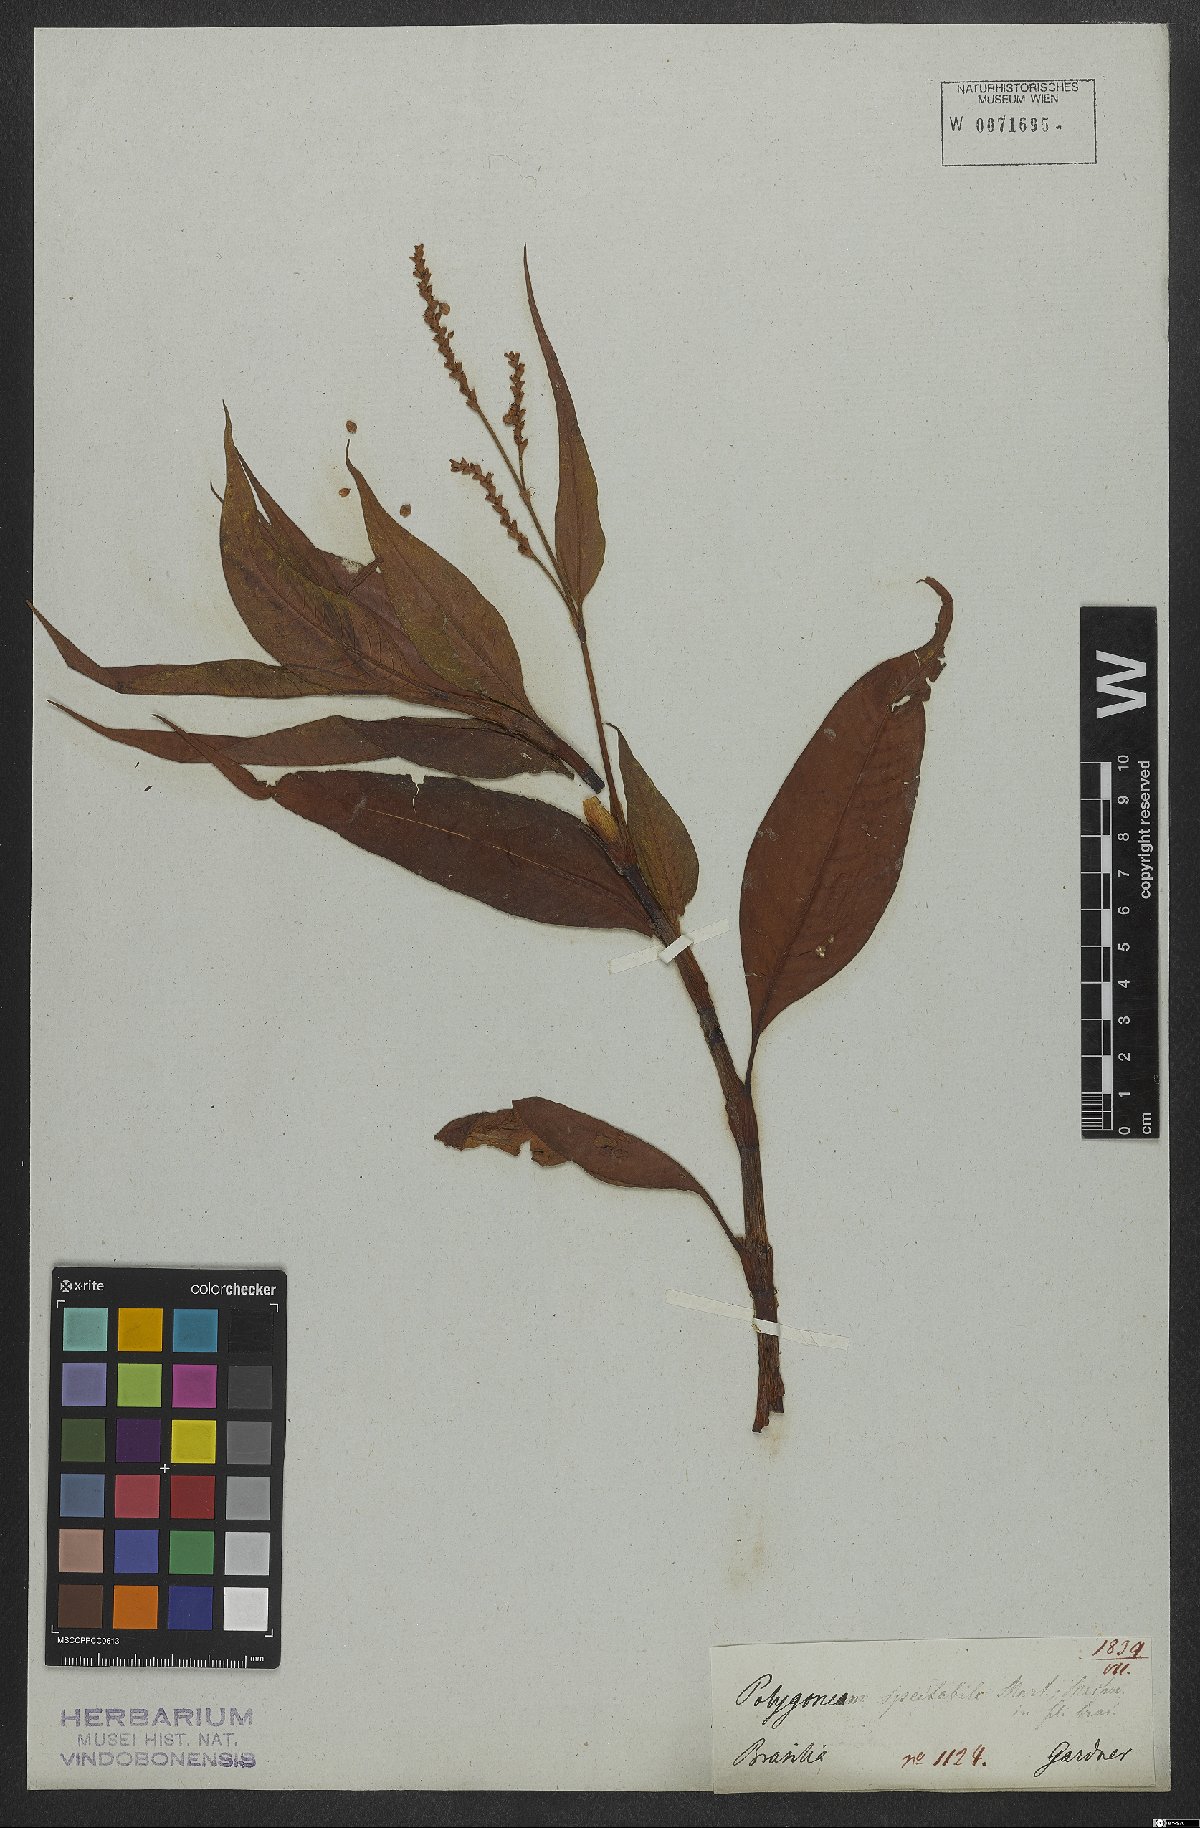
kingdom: Plantae
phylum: Tracheophyta
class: Magnoliopsida
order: Caryophyllales
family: Polygonaceae
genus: Persicaria
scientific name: Persicaria ferruginea
